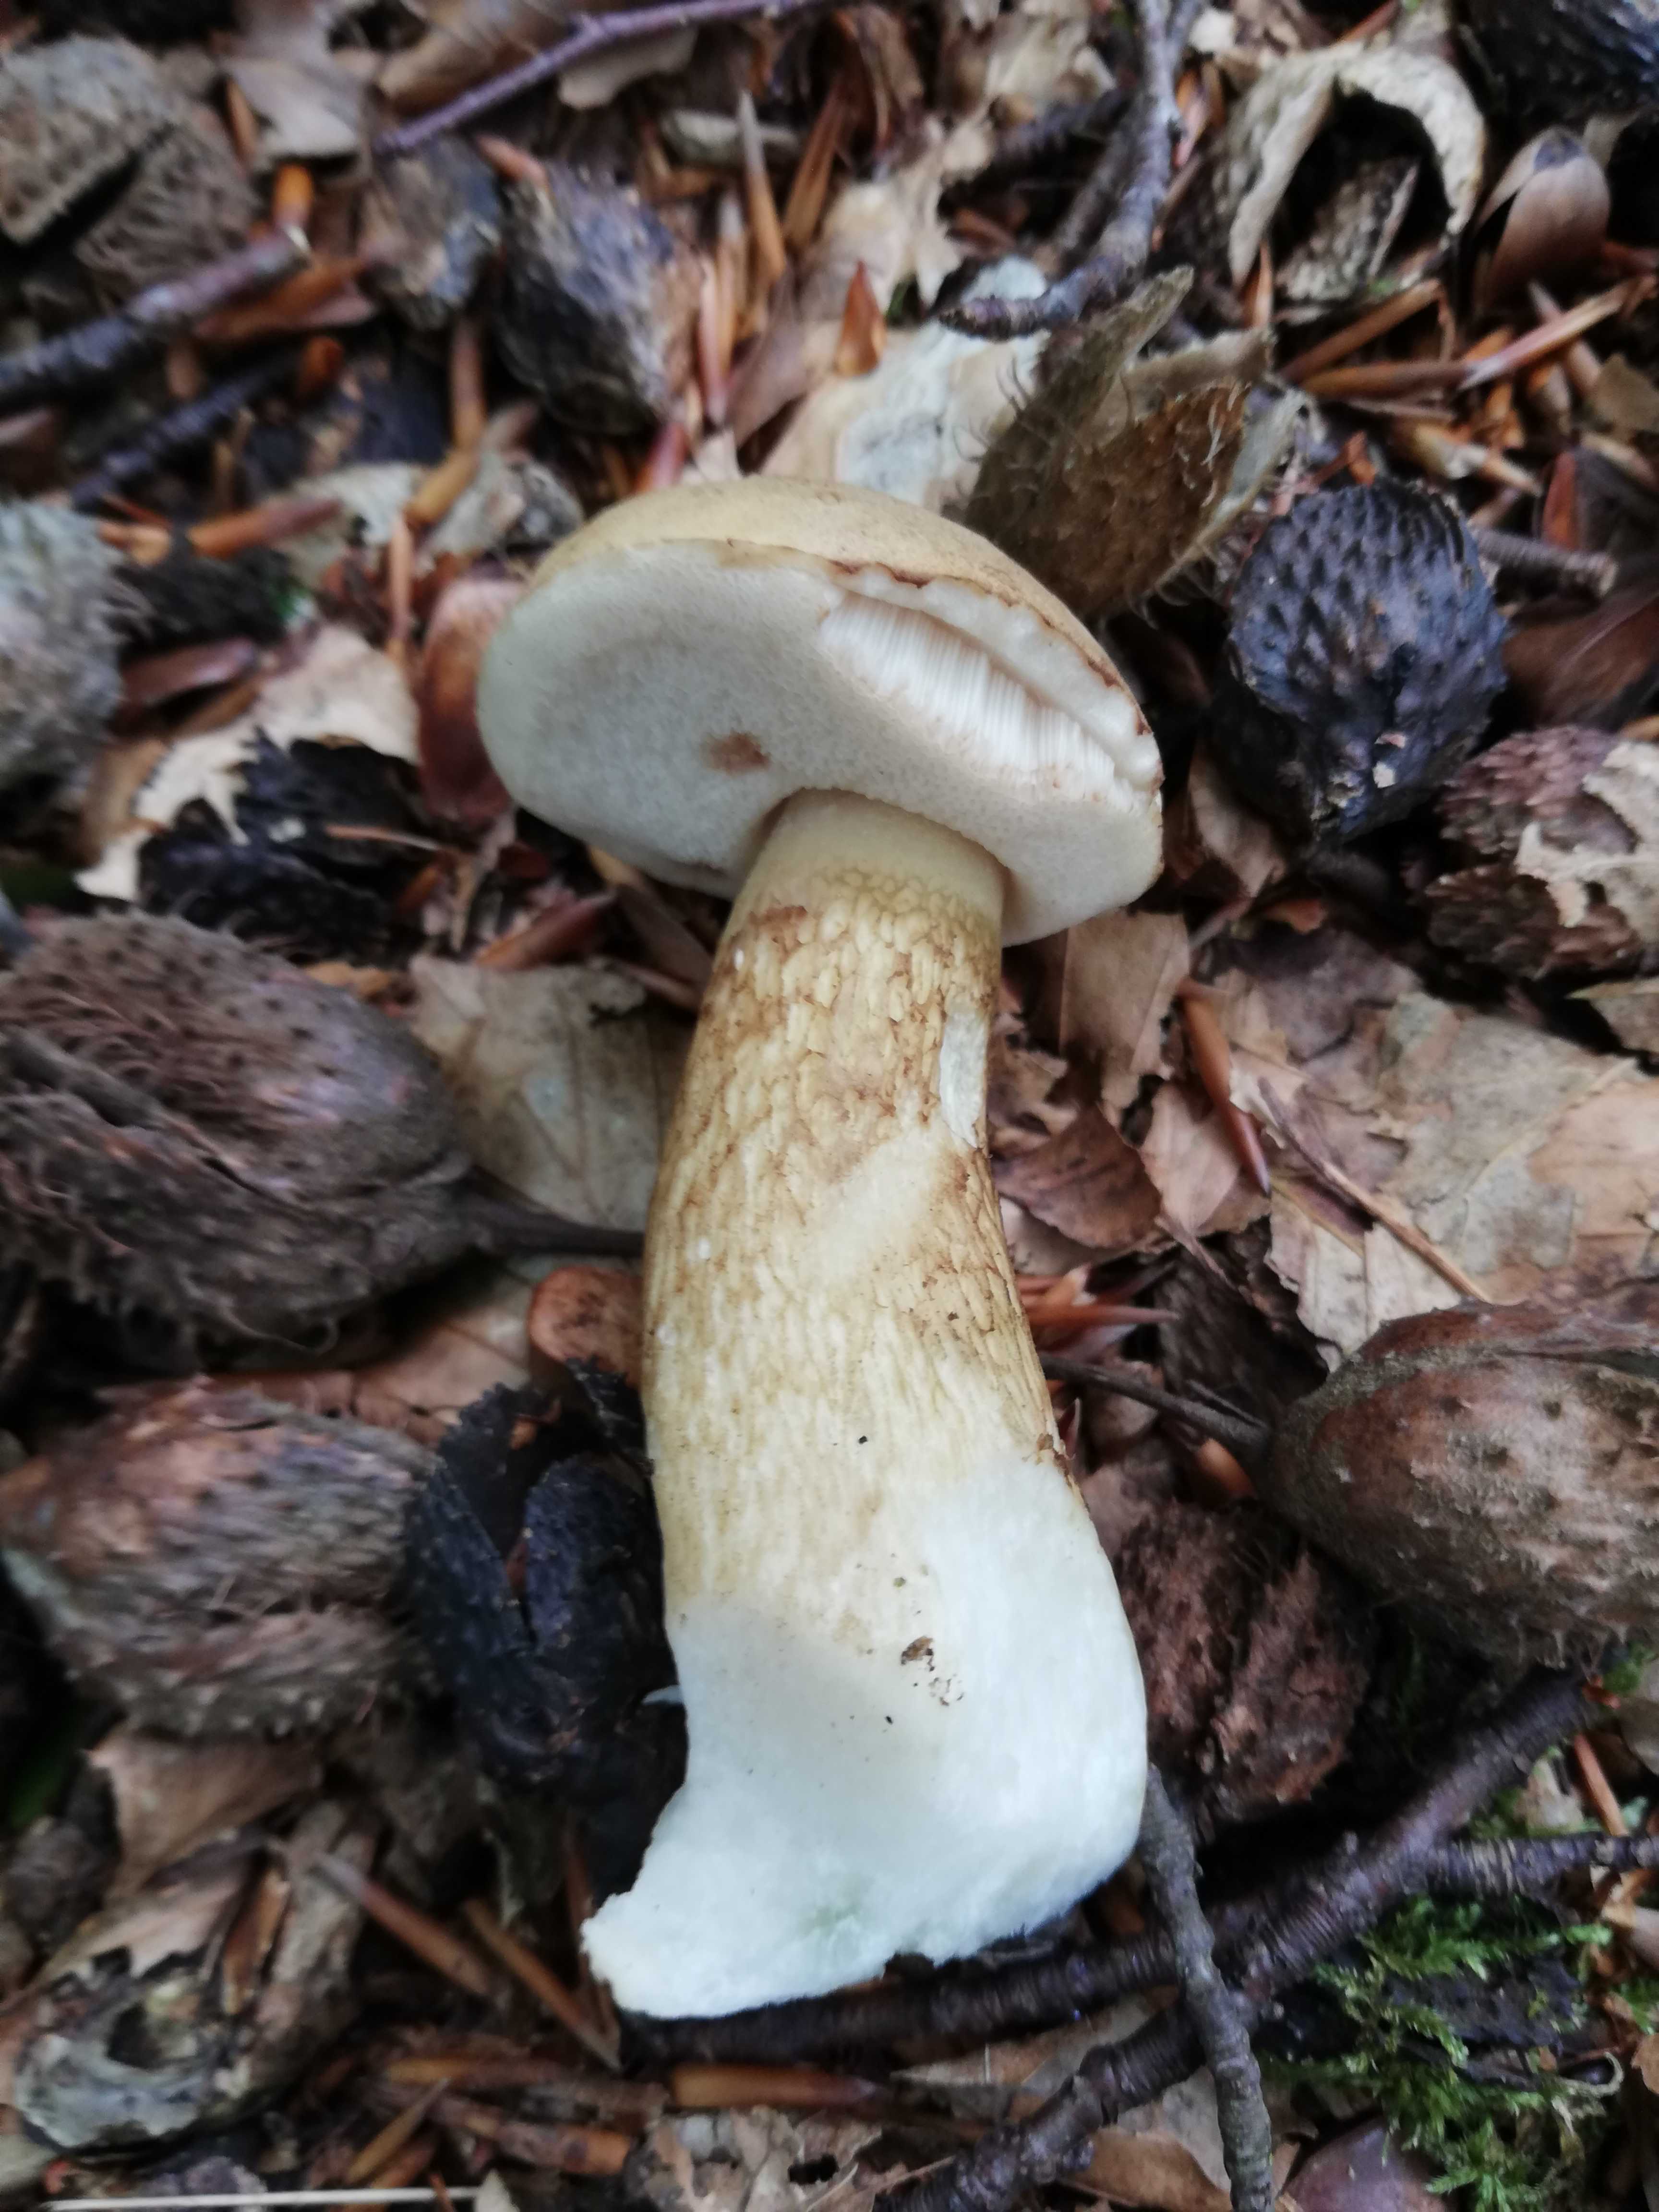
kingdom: Fungi
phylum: Basidiomycota
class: Agaricomycetes
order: Boletales
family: Boletaceae
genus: Tylopilus
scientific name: Tylopilus felleus
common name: galderørhat
